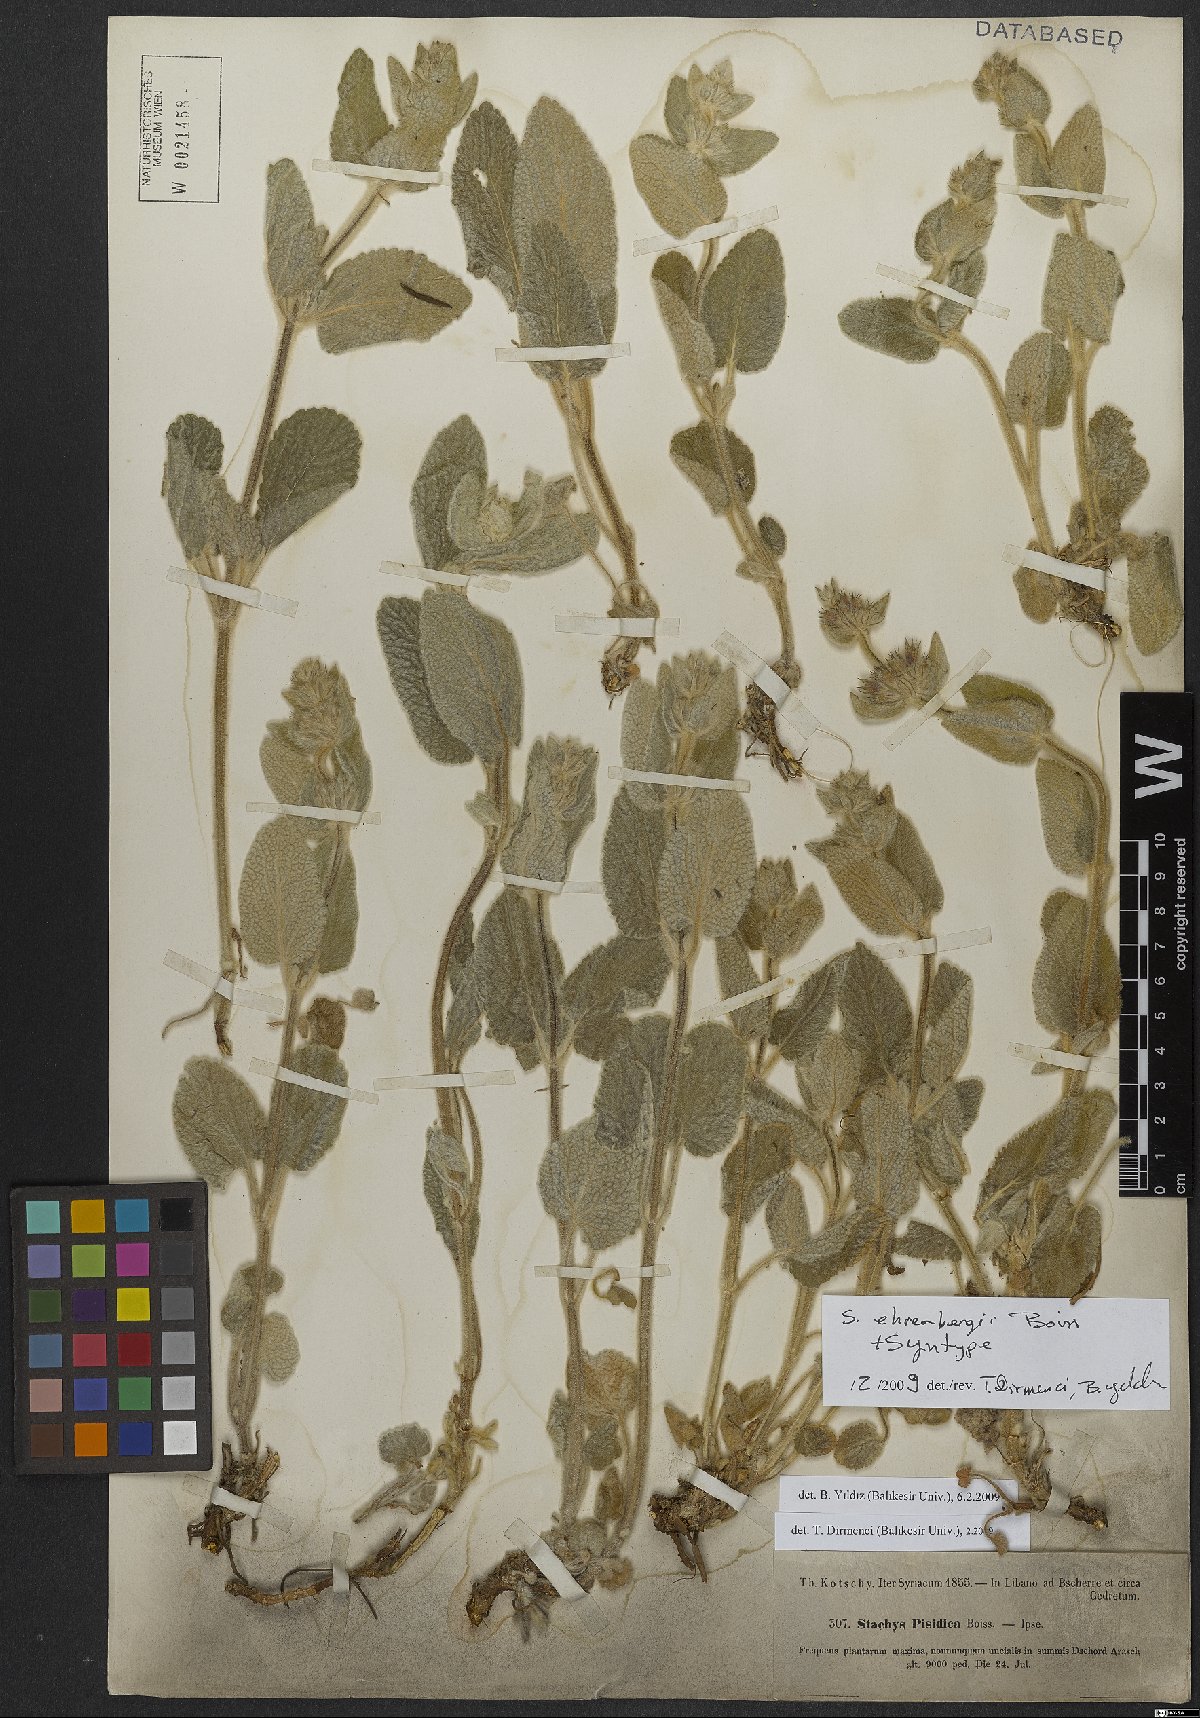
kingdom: Plantae
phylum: Tracheophyta
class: Magnoliopsida
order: Lamiales
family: Lamiaceae
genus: Stachys
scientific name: Stachys ehrenbergii
